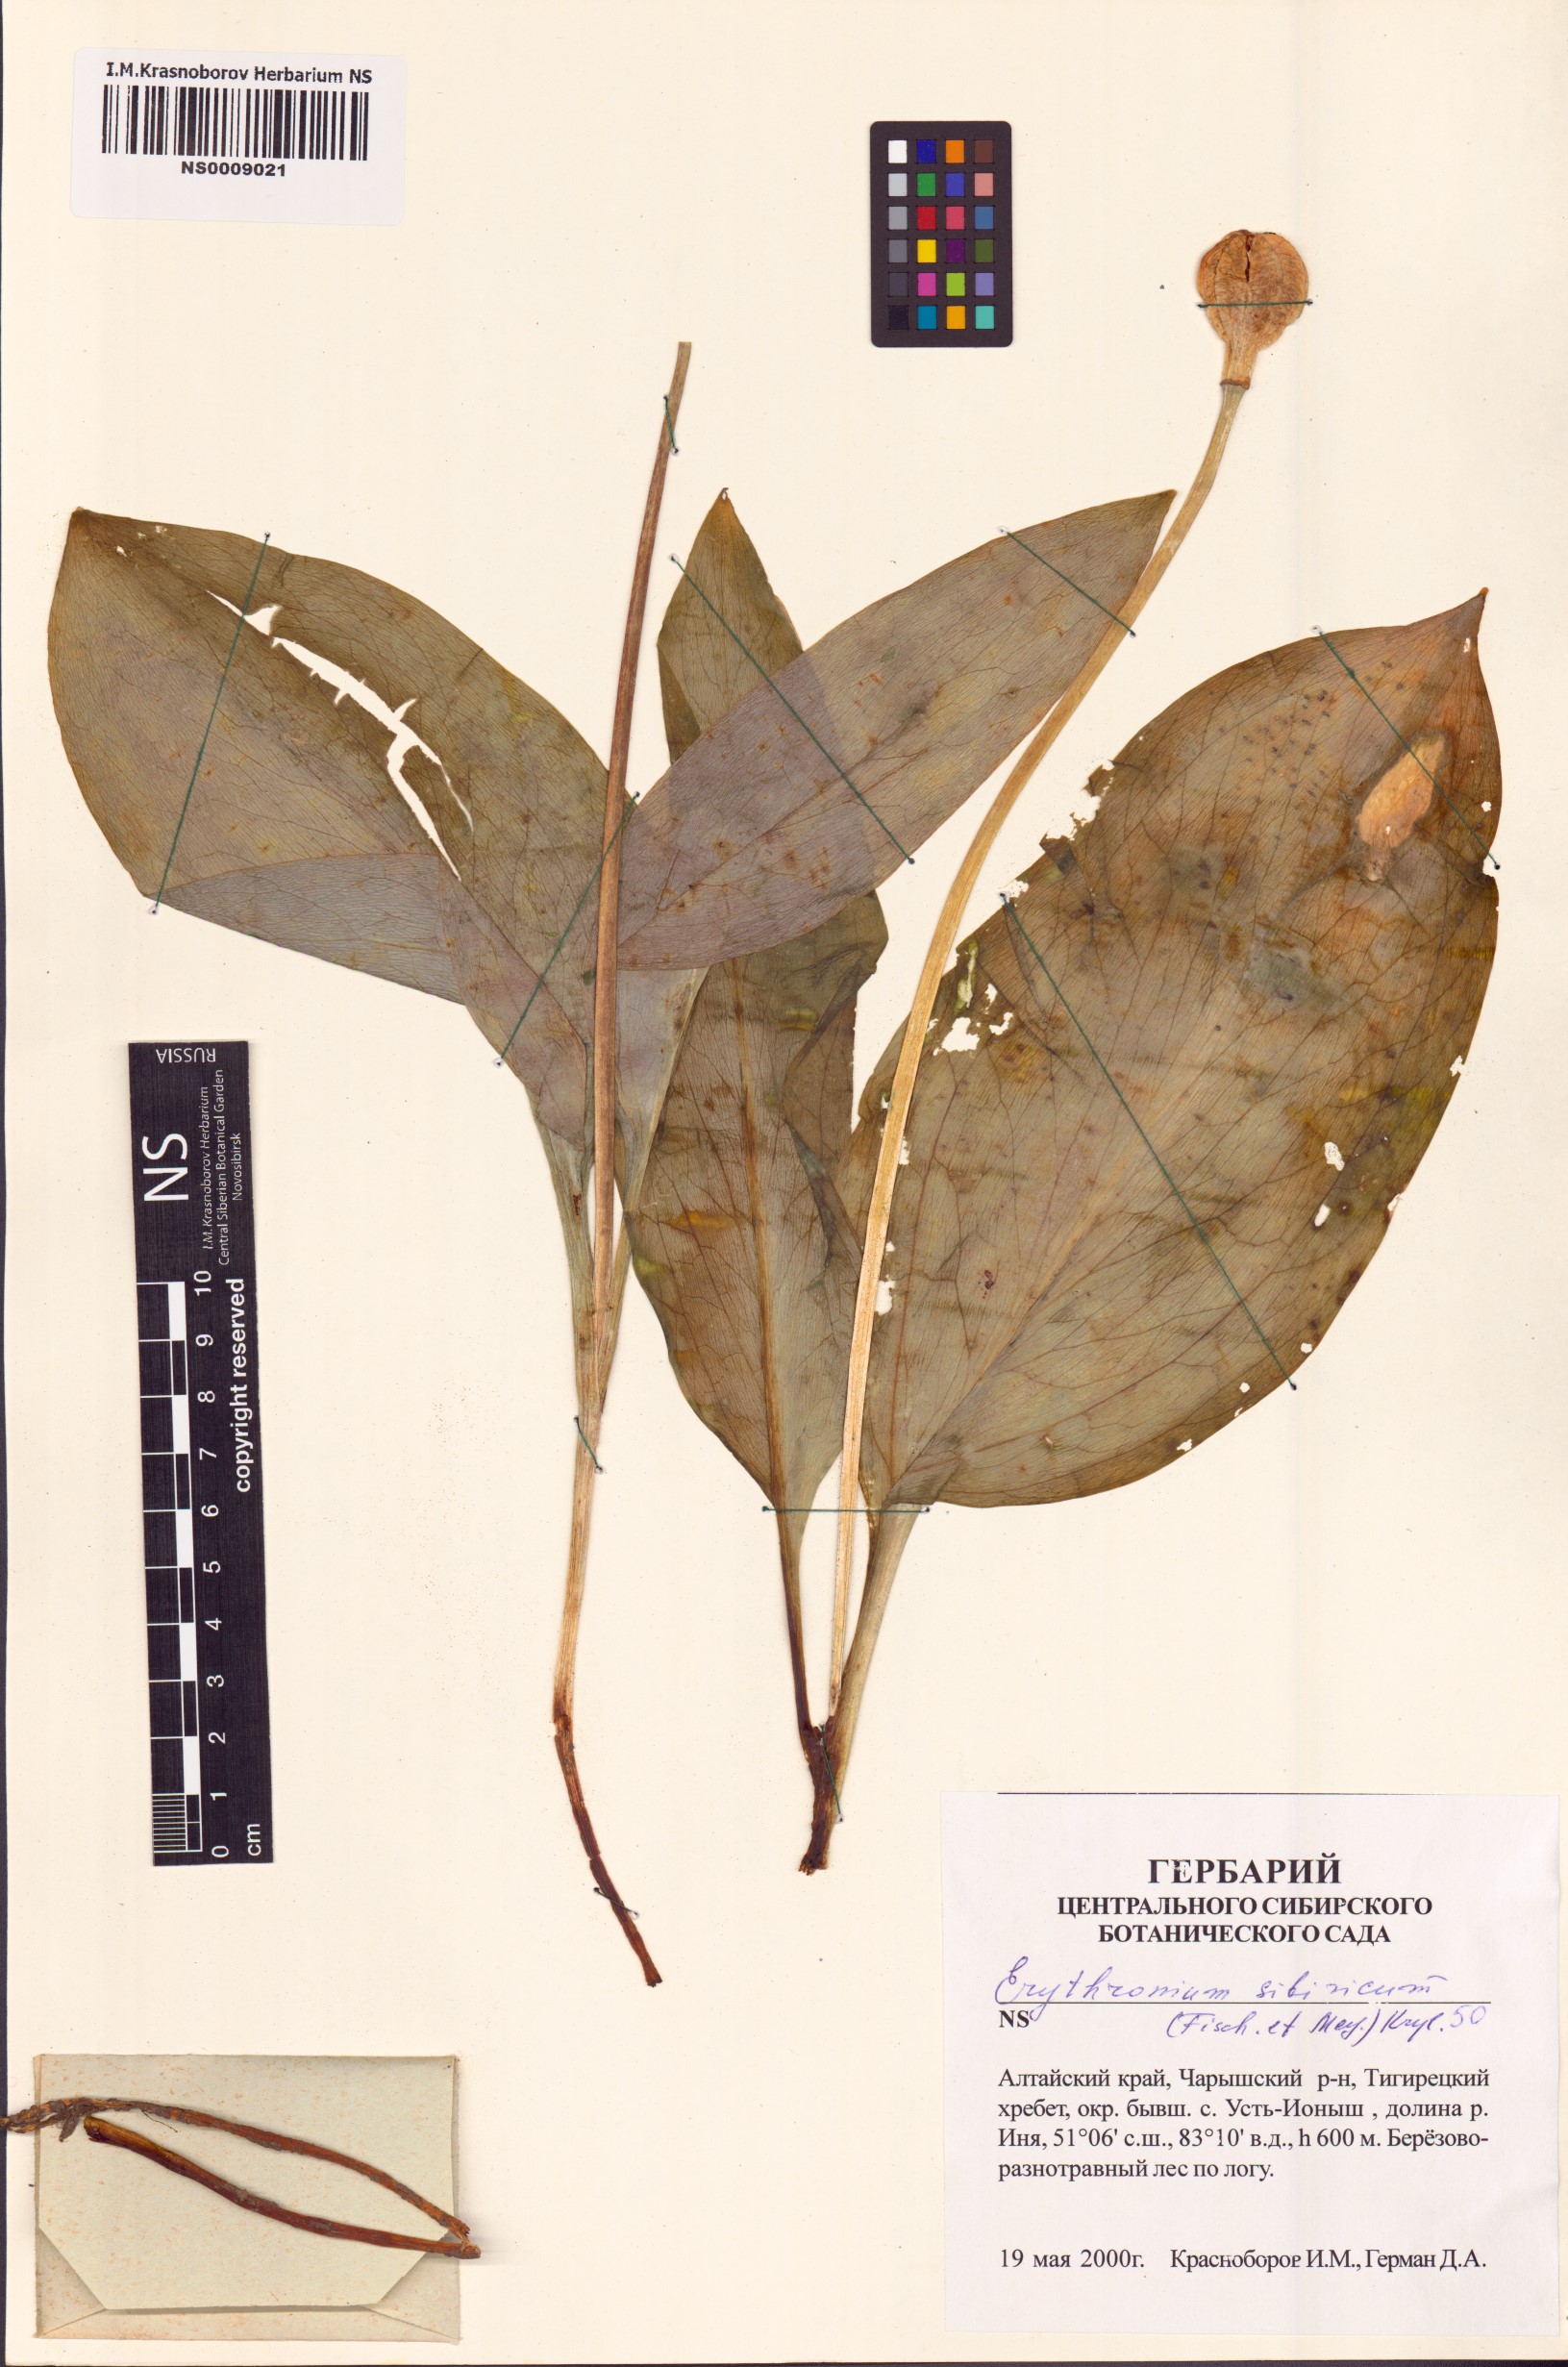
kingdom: Plantae
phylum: Tracheophyta
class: Liliopsida
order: Liliales
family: Liliaceae
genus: Erythronium
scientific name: Erythronium sibiricum
